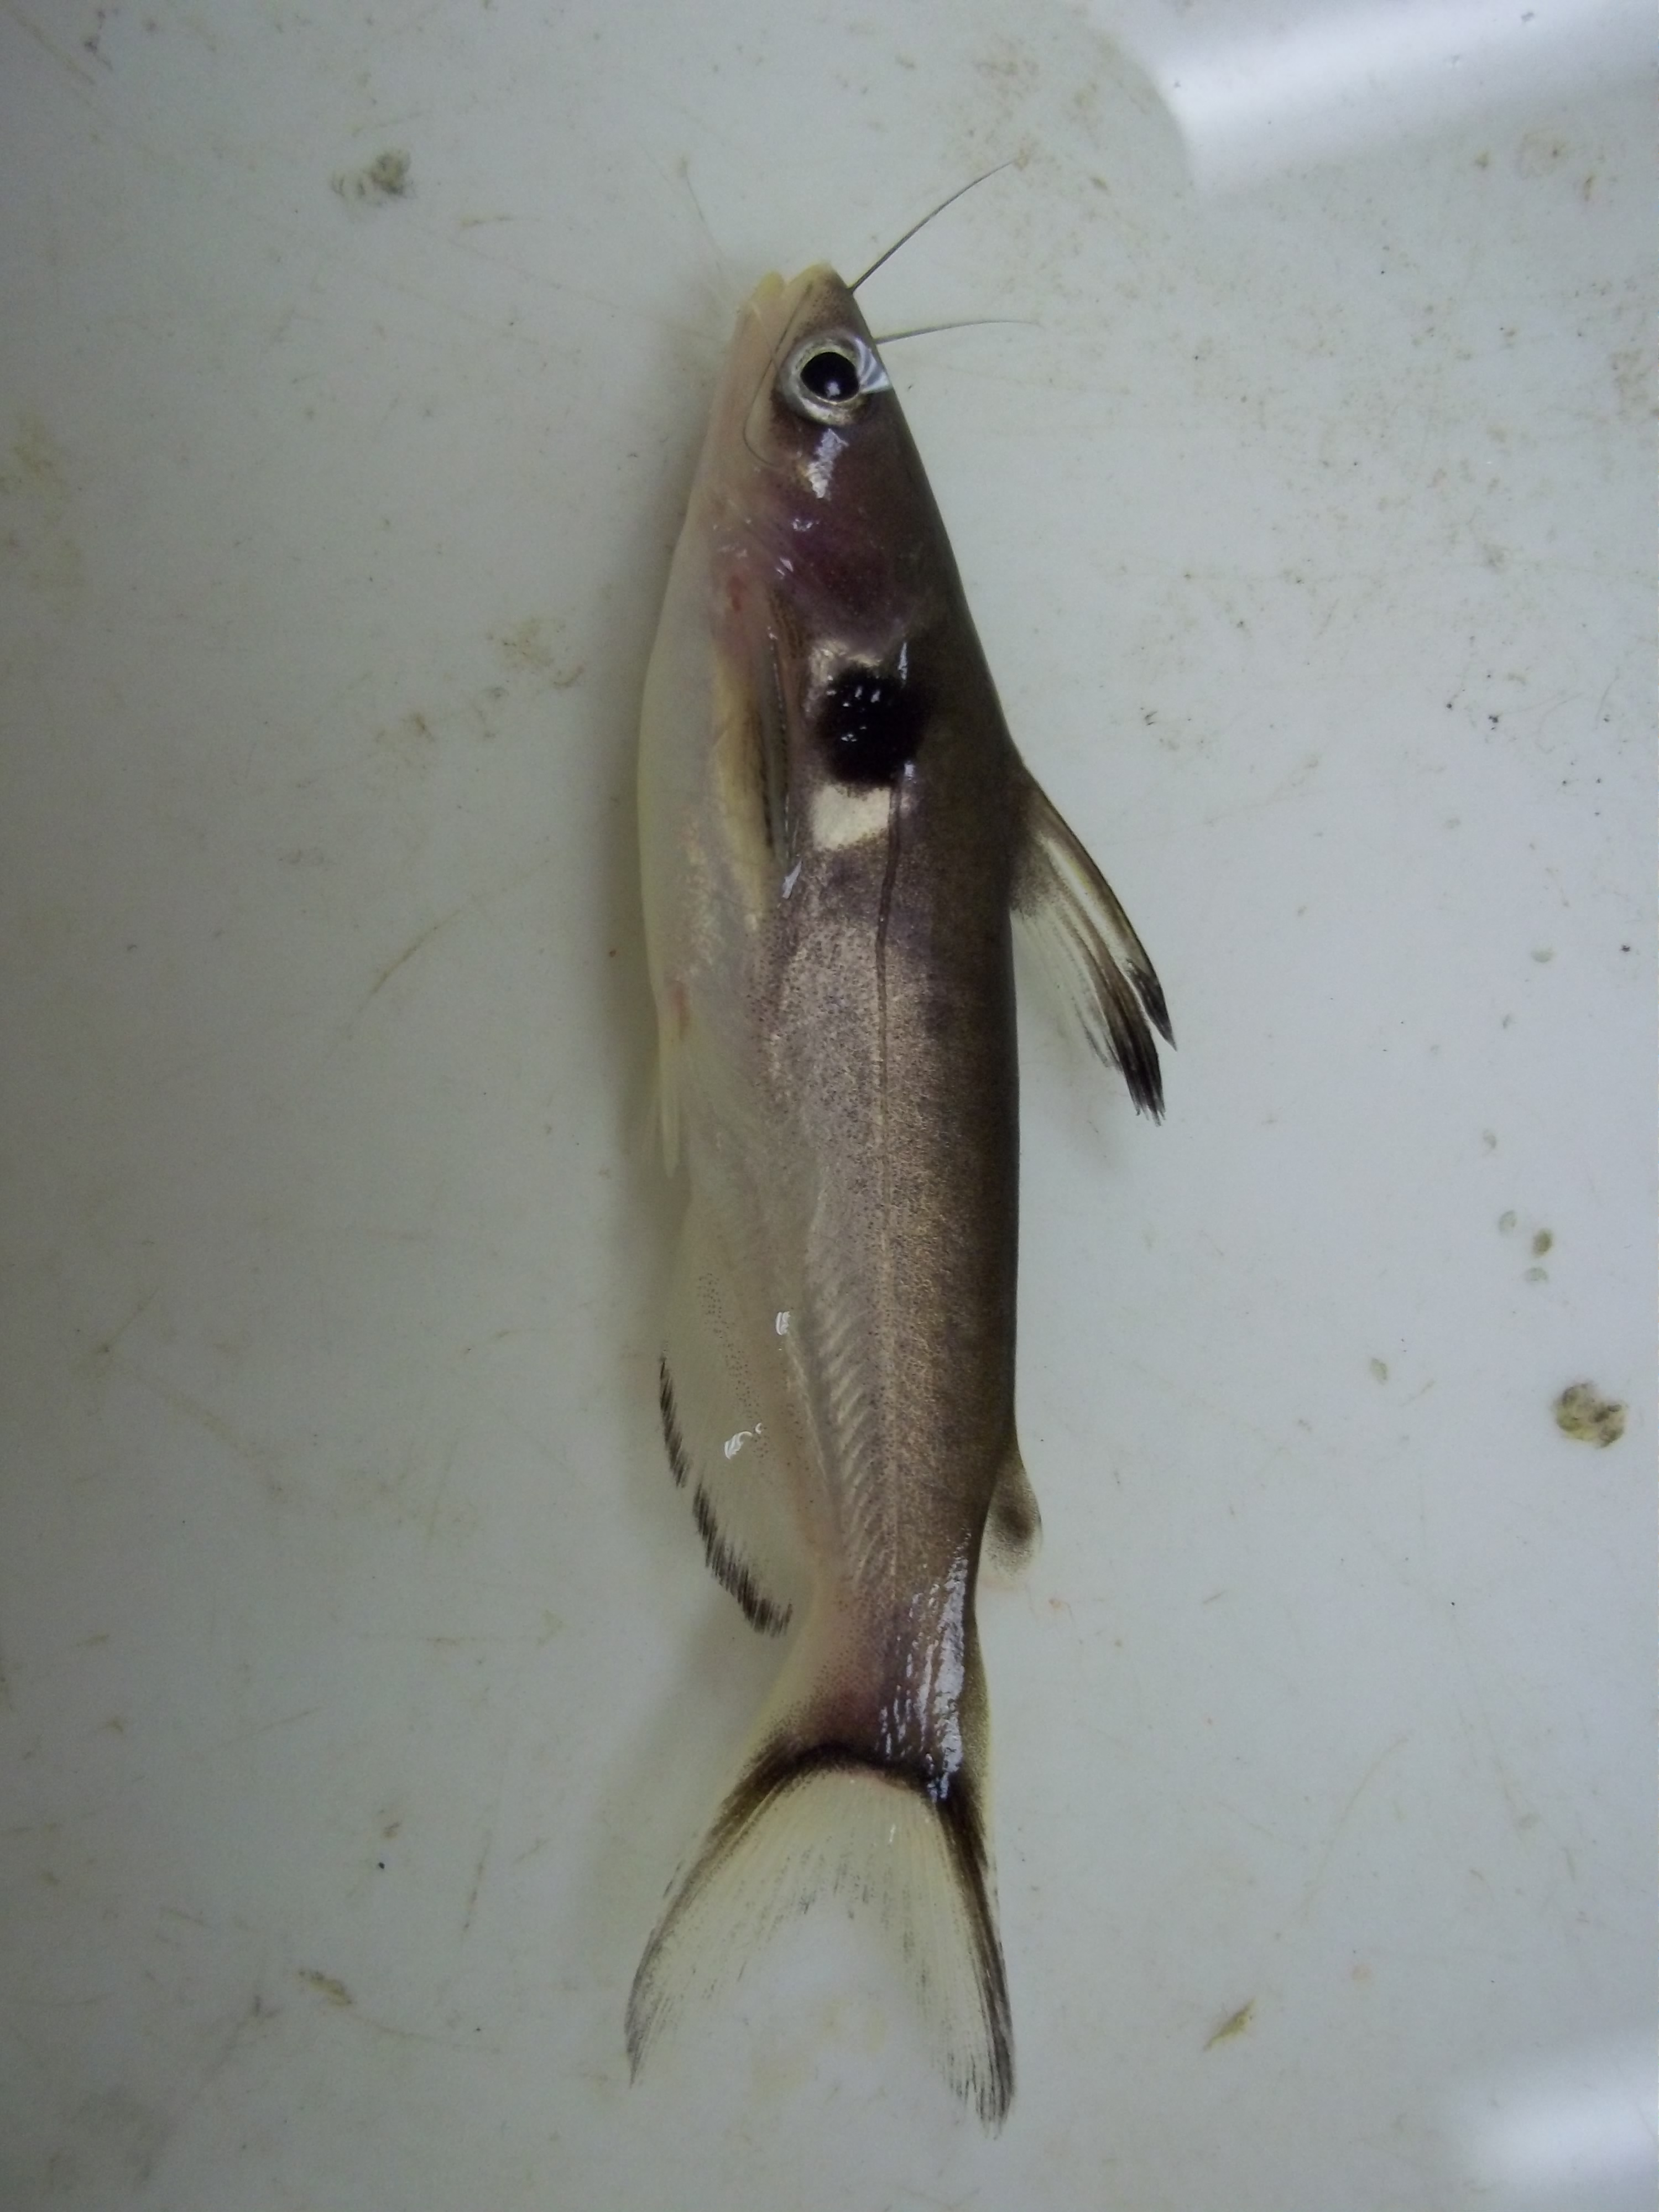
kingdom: Animalia
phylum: Chordata
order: Siluriformes
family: Bagridae
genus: Horabagrus
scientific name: Horabagrus brachysoma
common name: Bulls eye catfish
